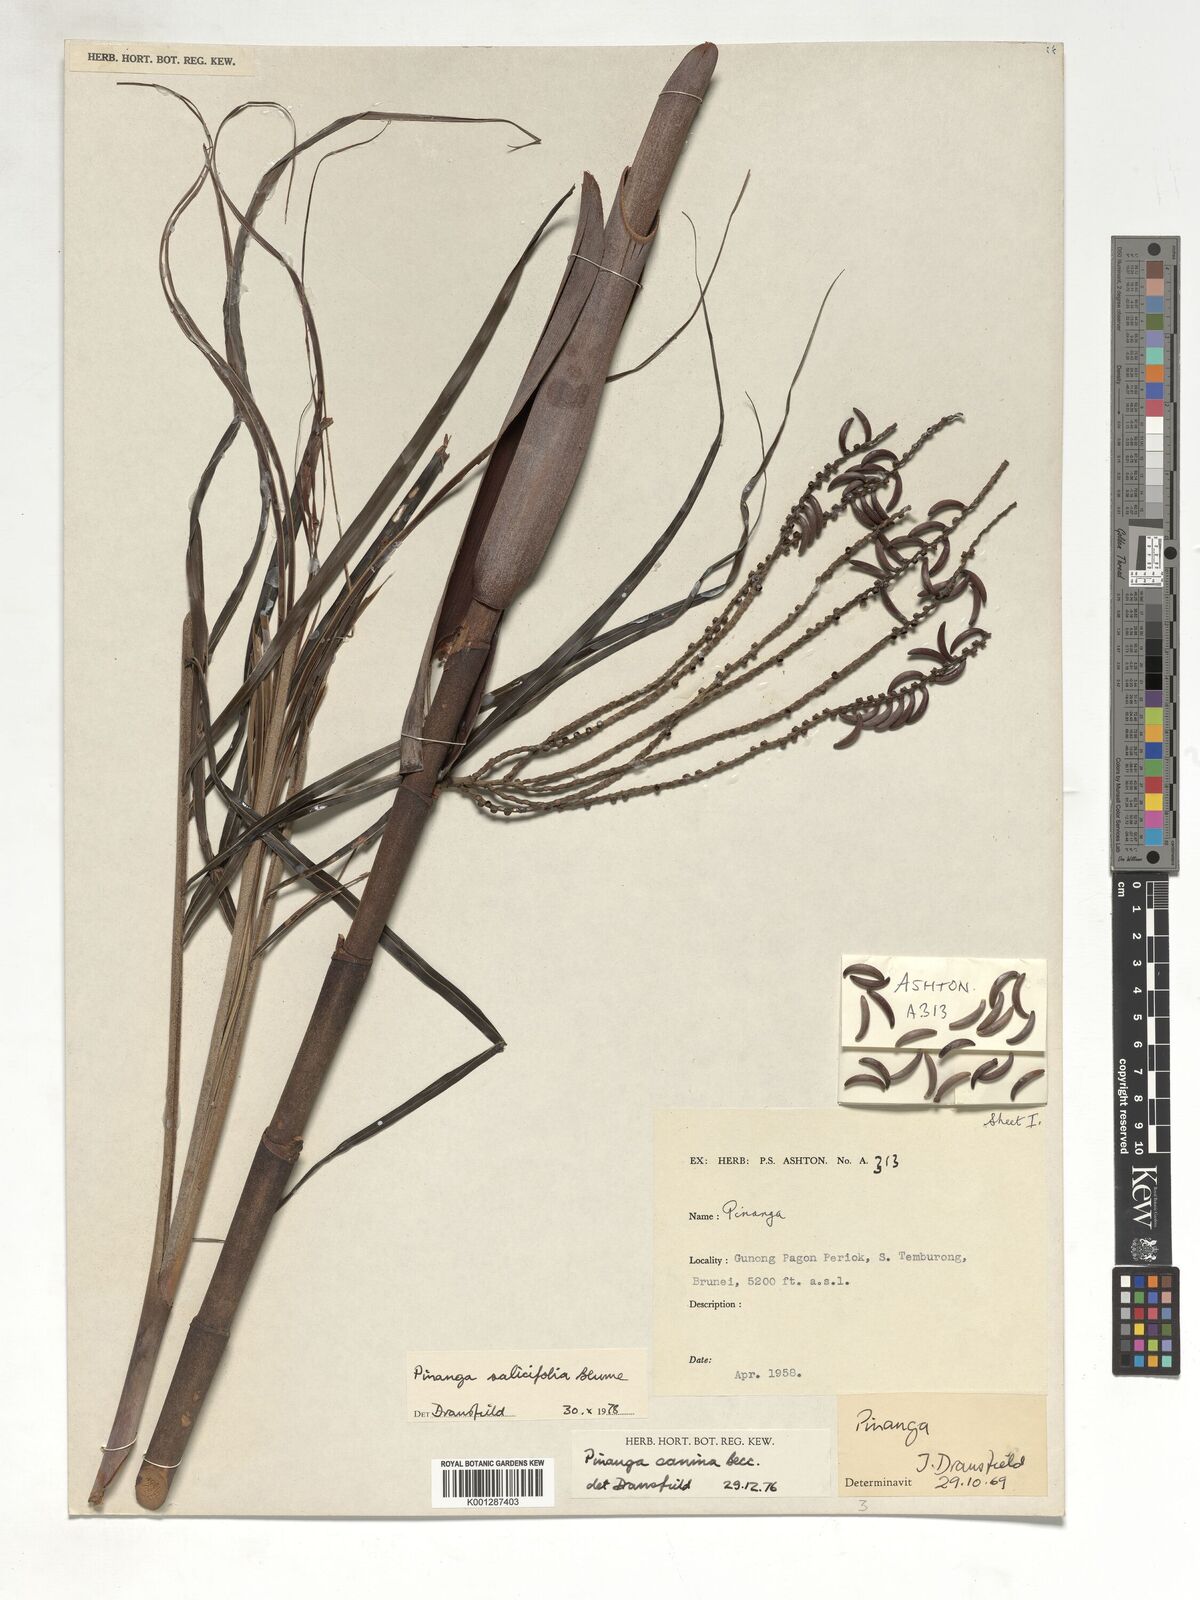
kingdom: Plantae
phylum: Tracheophyta
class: Liliopsida
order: Arecales
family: Arecaceae
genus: Pinanga
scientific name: Pinanga salicifolia
